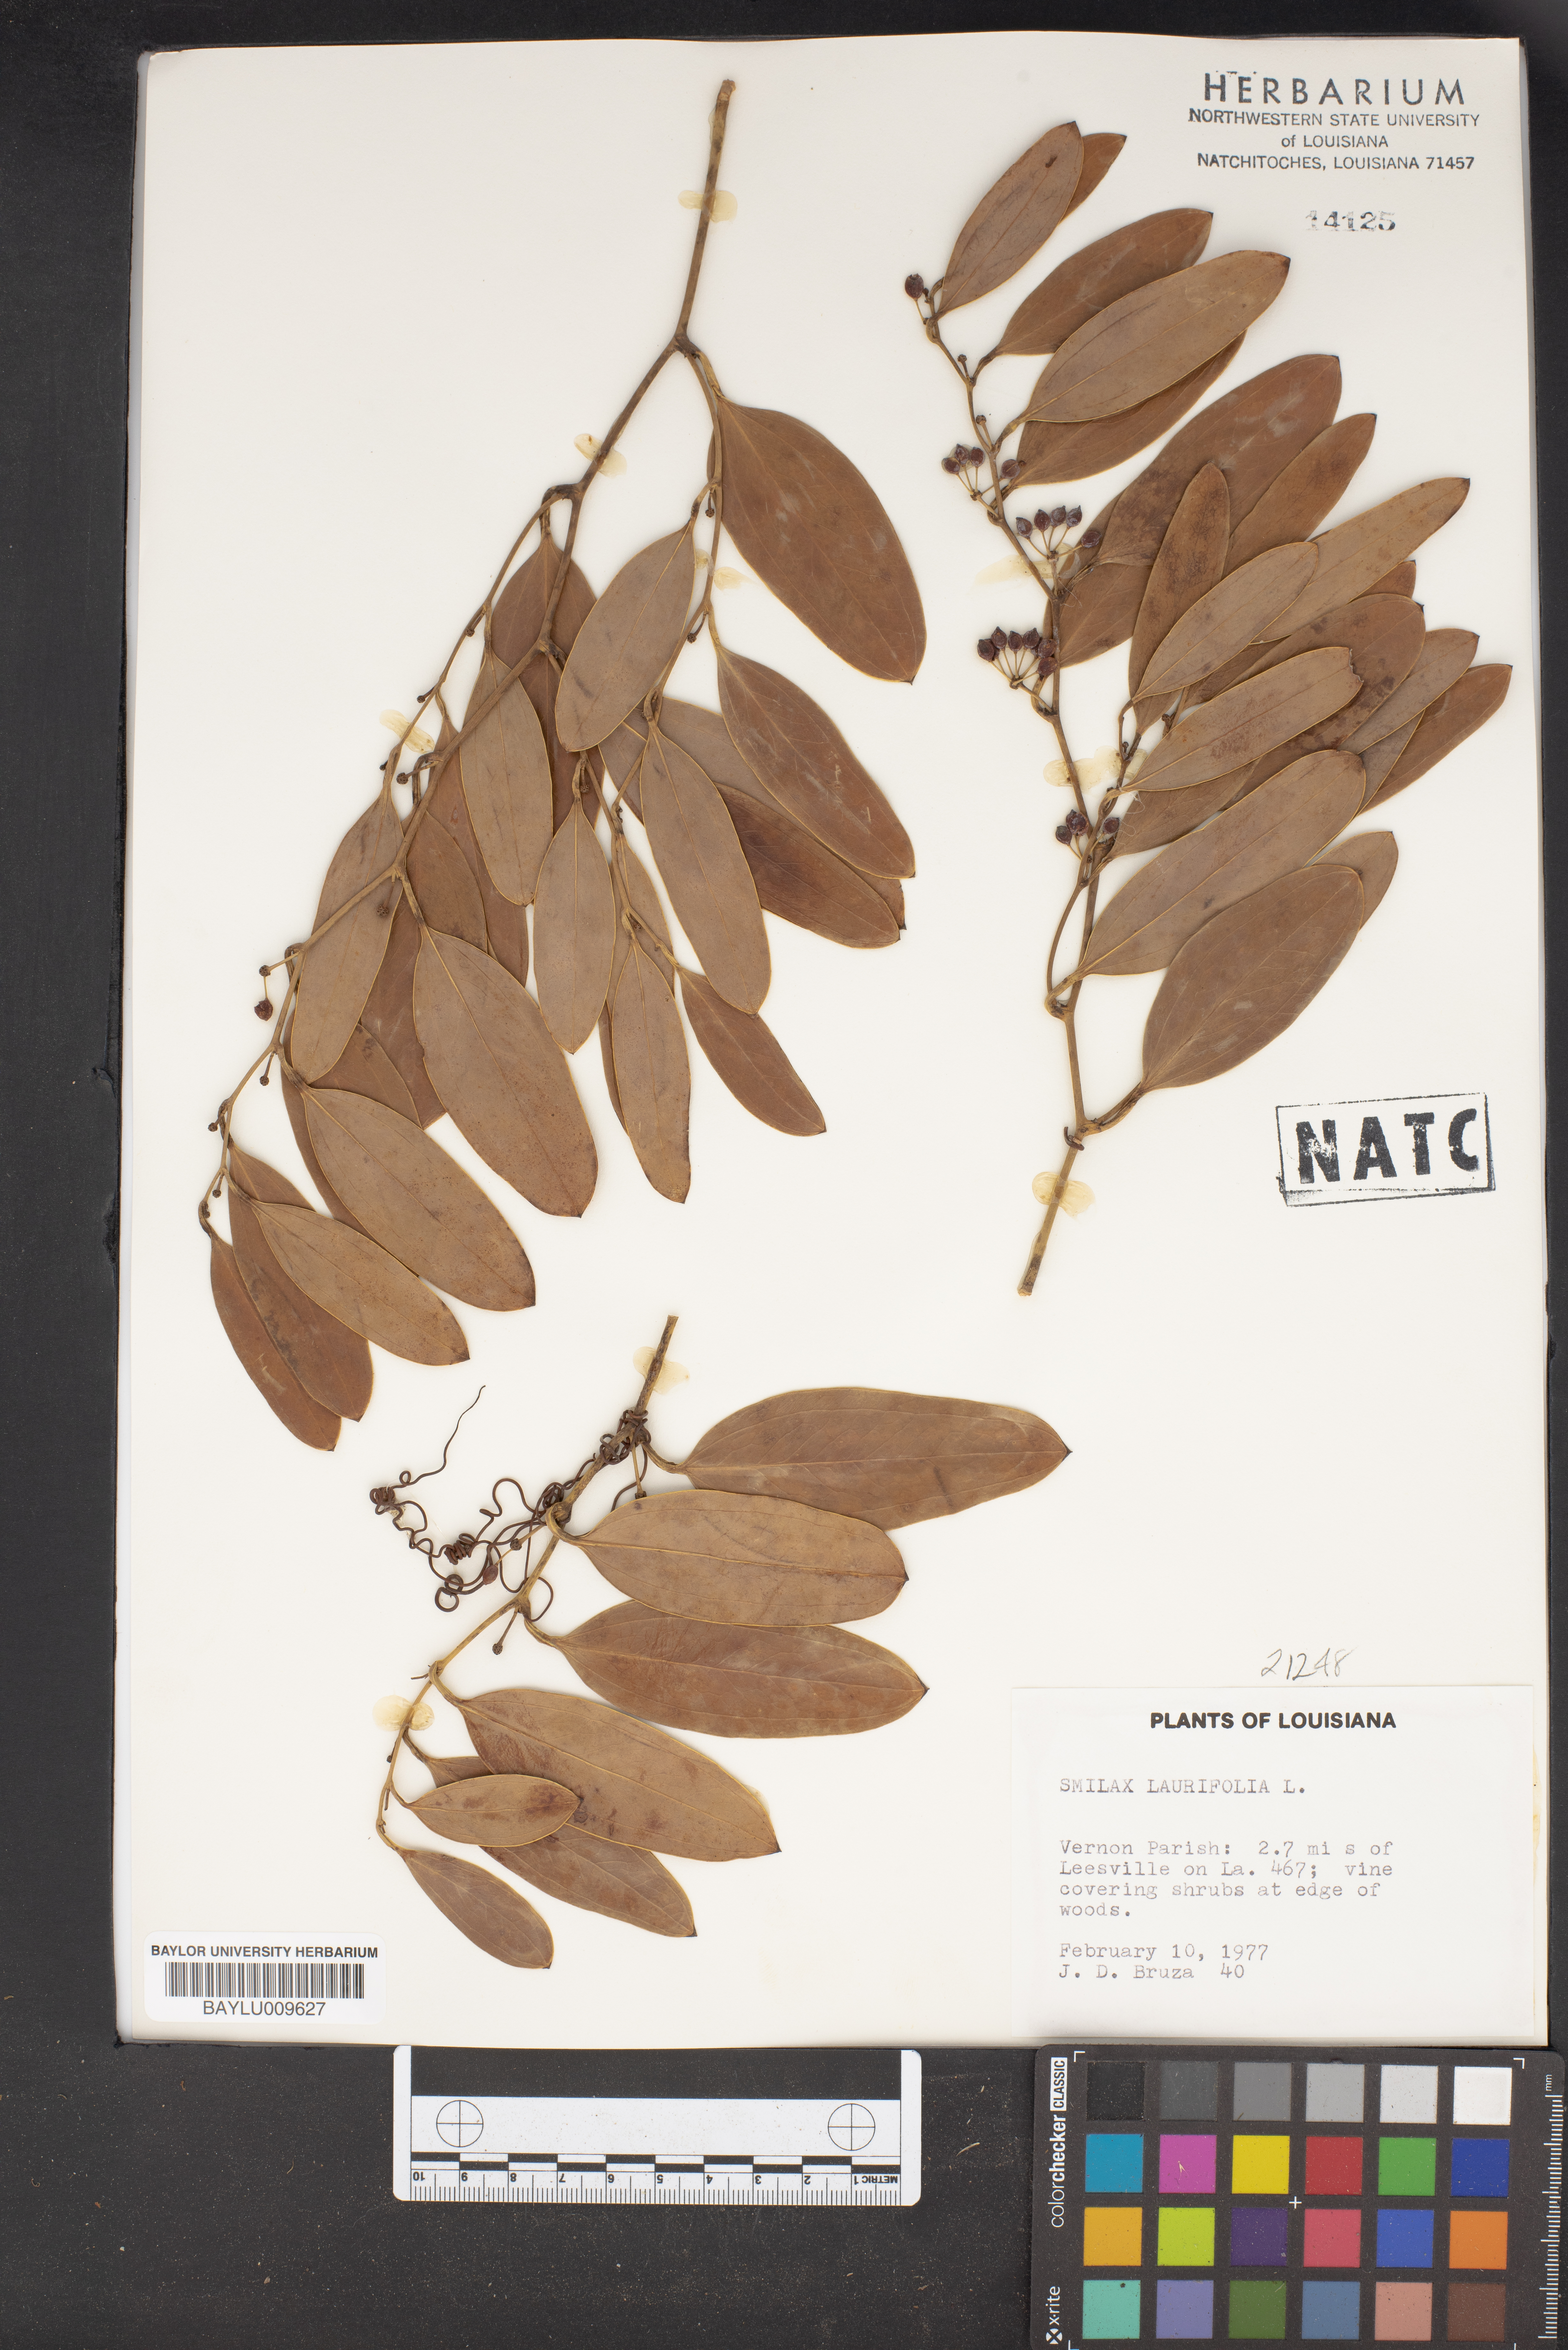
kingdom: Plantae
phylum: Tracheophyta
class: Liliopsida
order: Liliales
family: Smilacaceae
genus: Smilax
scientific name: Smilax laurifolia
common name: Bamboovine
